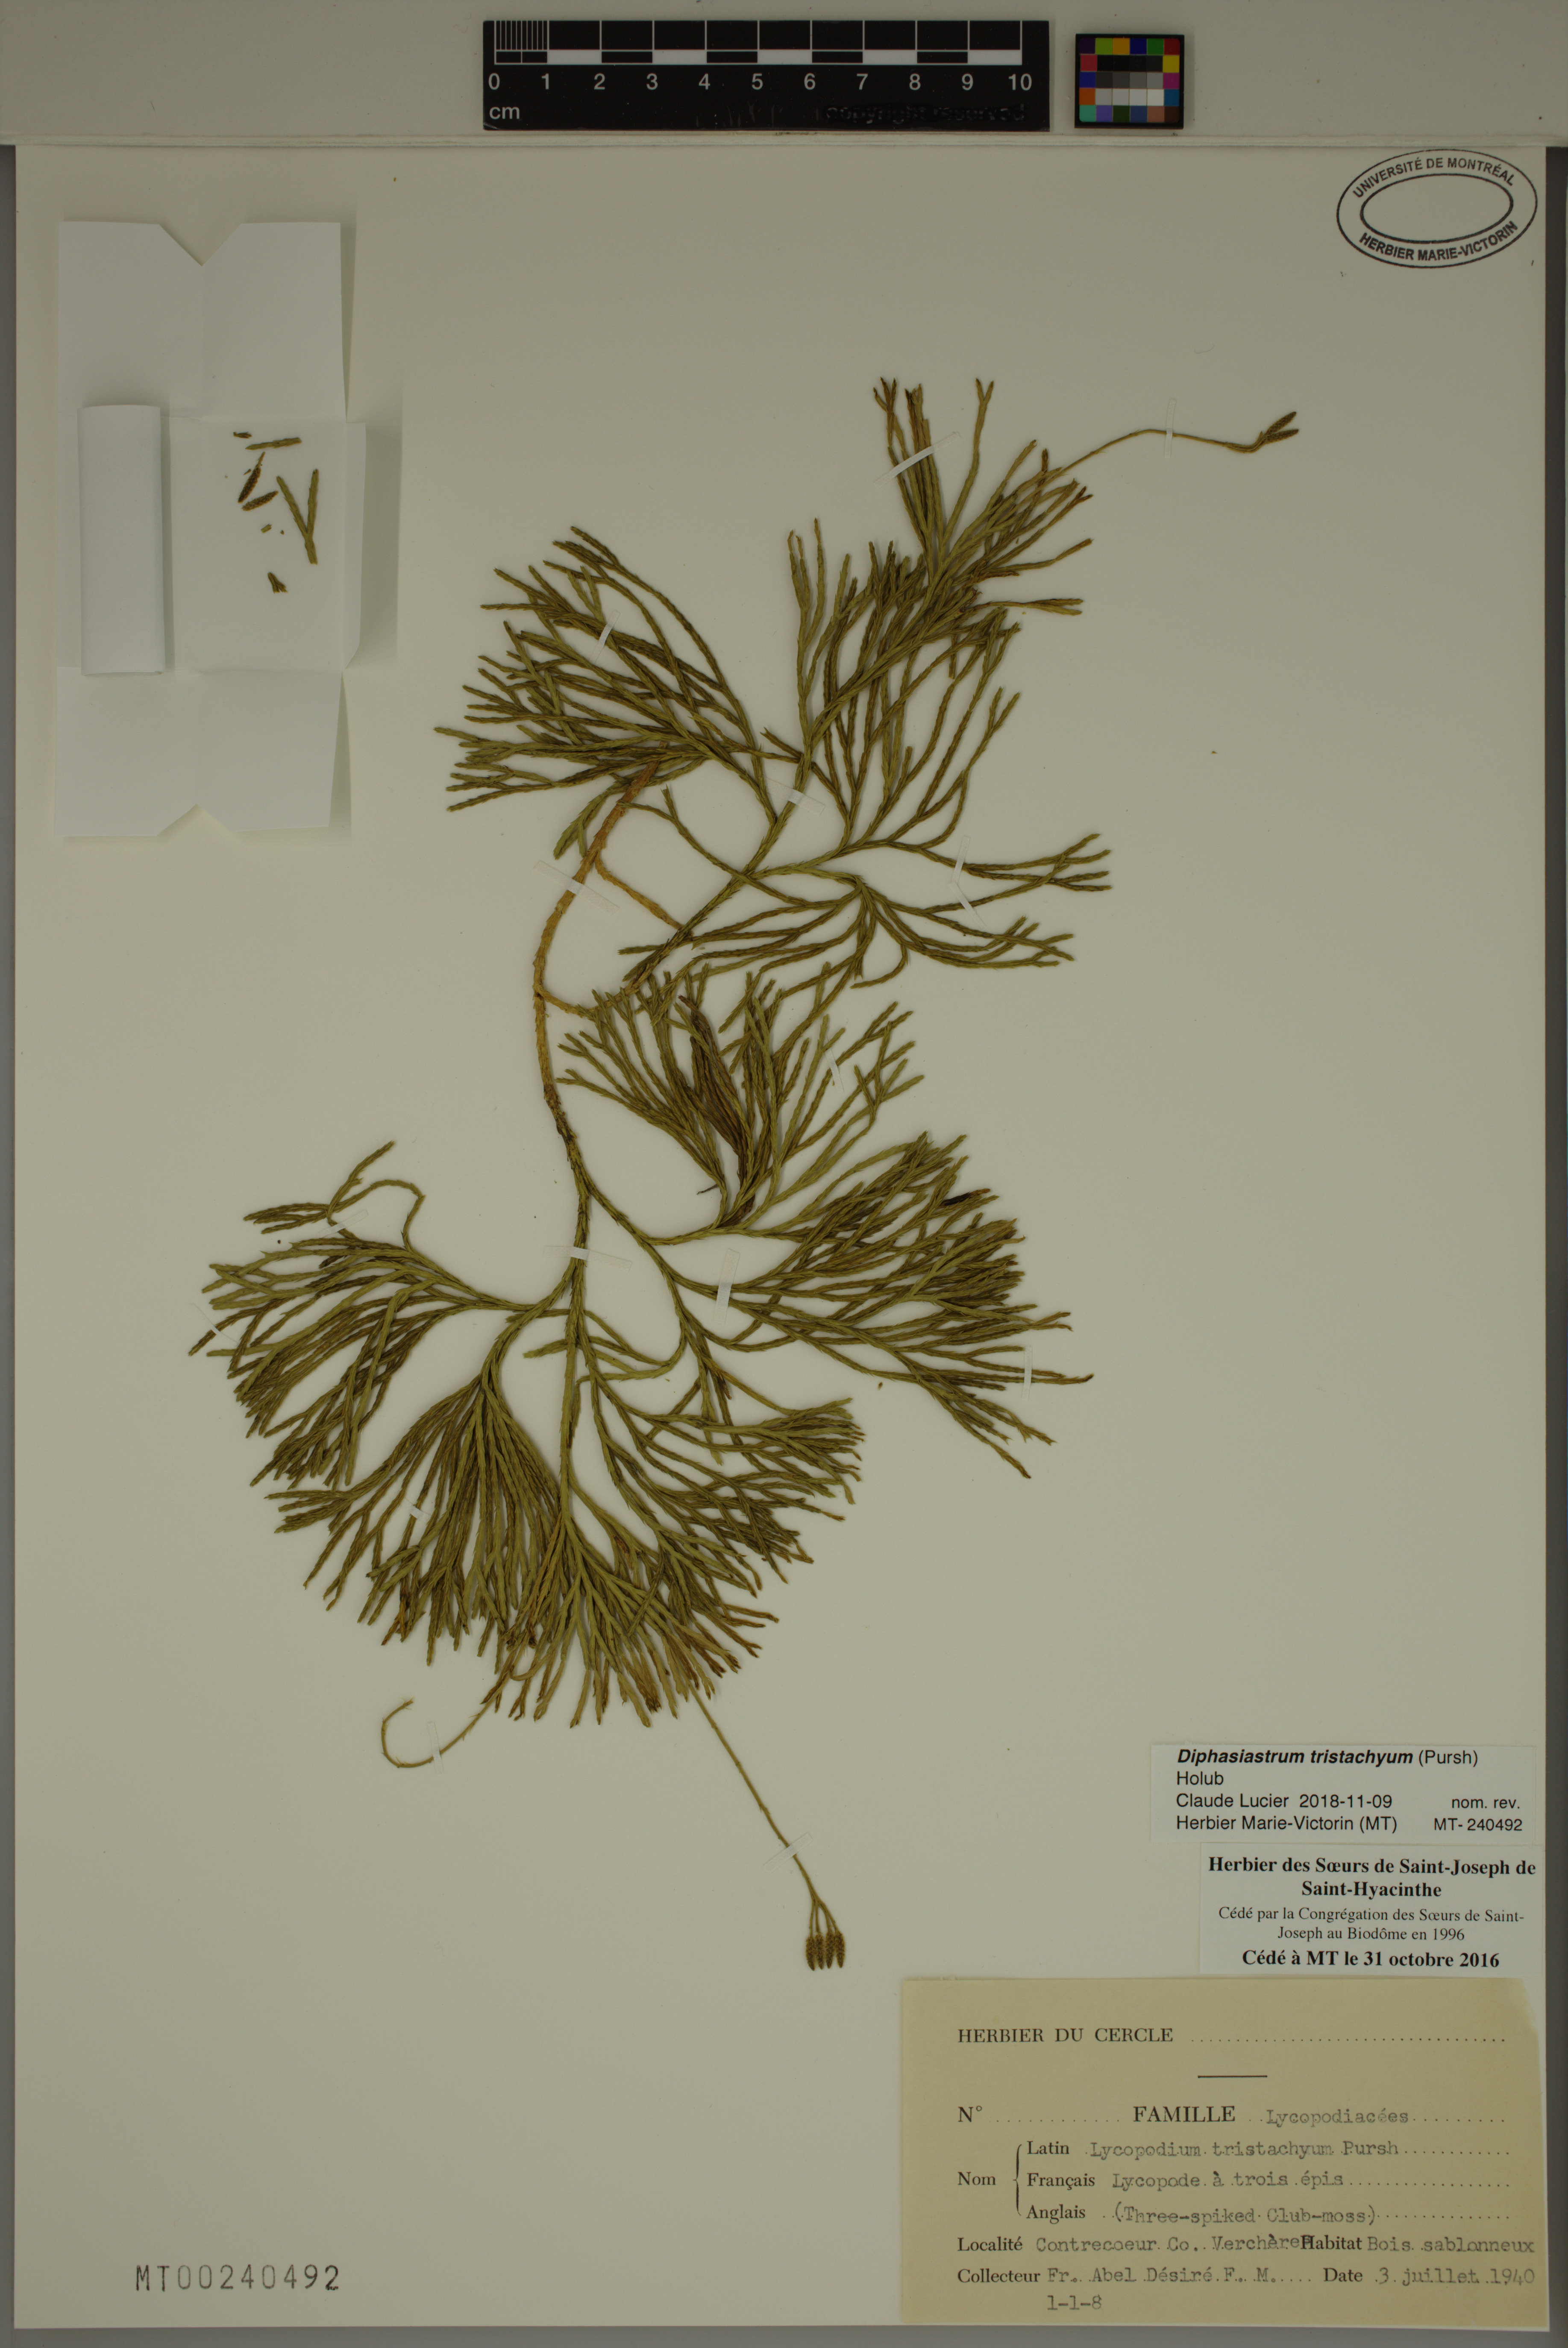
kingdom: Plantae
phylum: Tracheophyta
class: Lycopodiopsida
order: Lycopodiales
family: Lycopodiaceae
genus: Diphasiastrum
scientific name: Diphasiastrum tristachyum
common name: Blue ground-cedar
